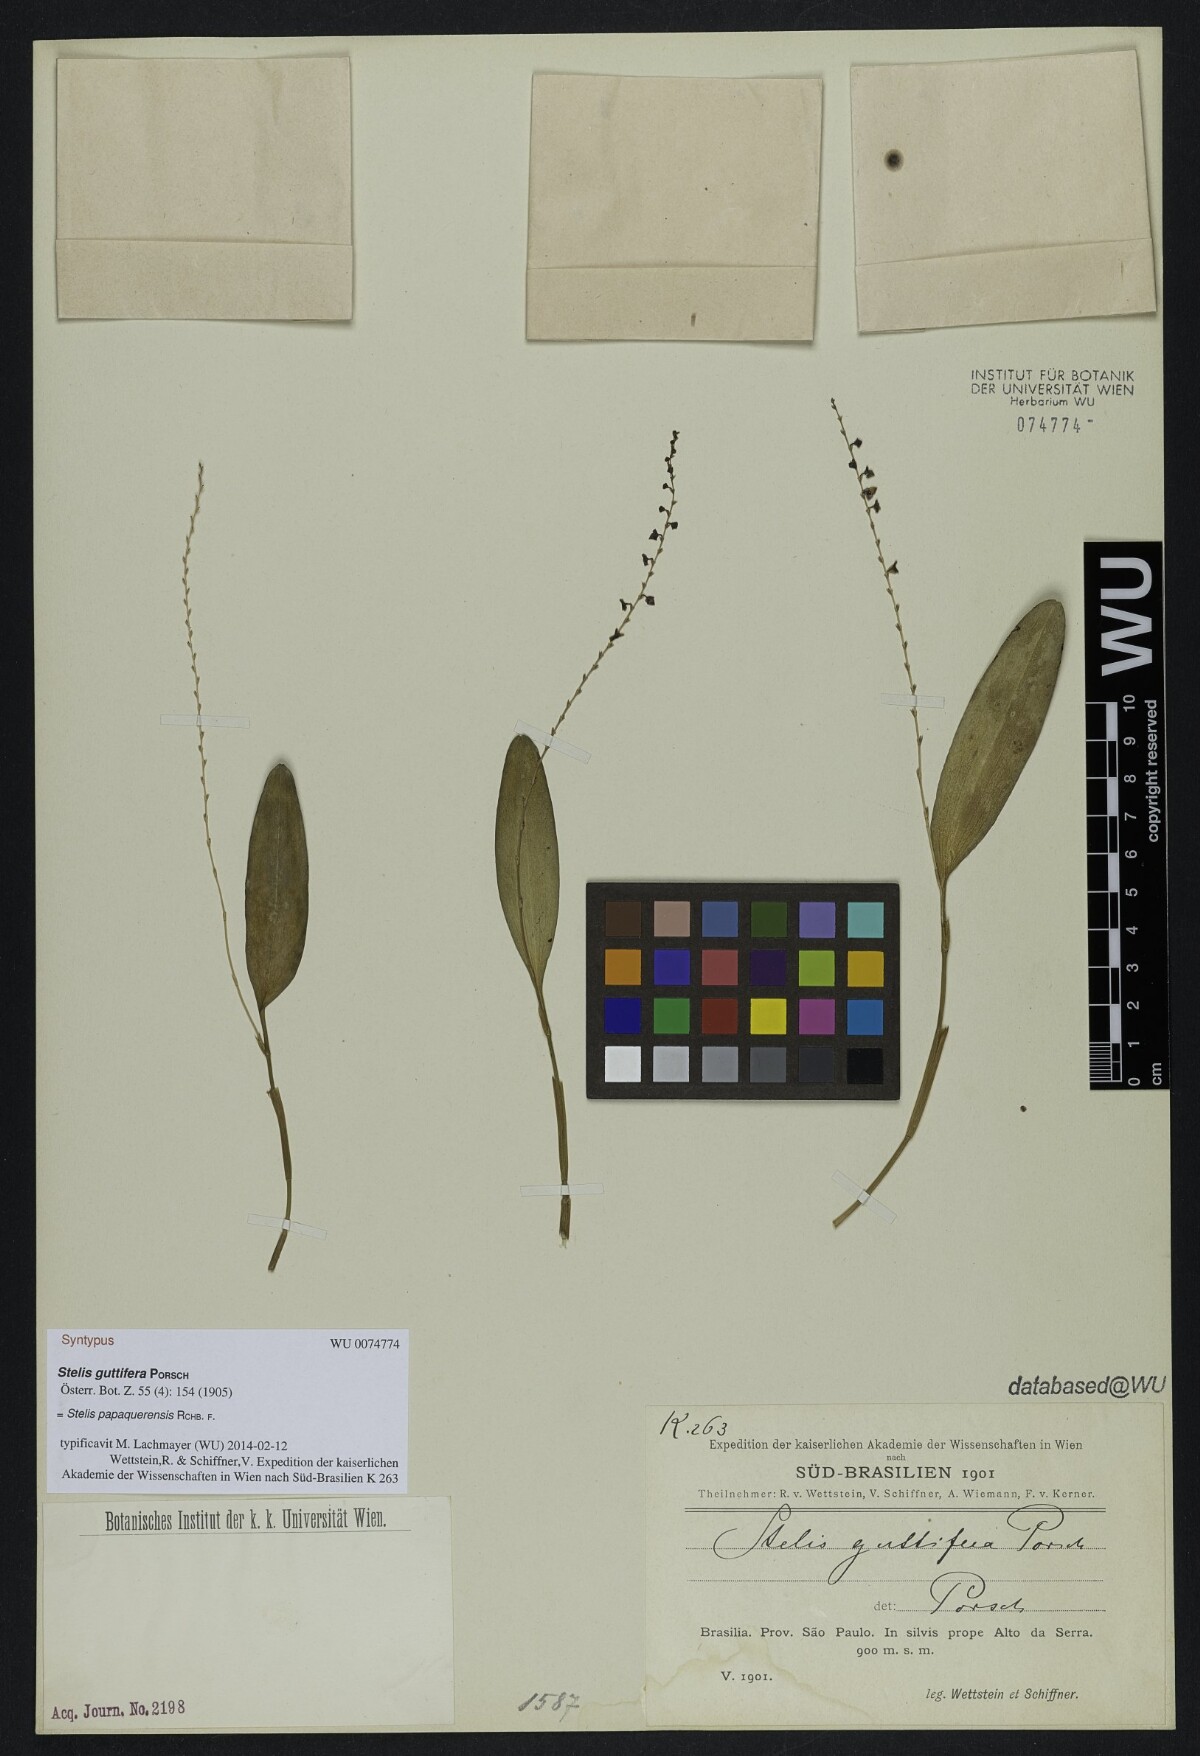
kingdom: Plantae
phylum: Tracheophyta
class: Liliopsida
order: Asparagales
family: Orchidaceae
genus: Stelis
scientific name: Stelis papaquerensis
